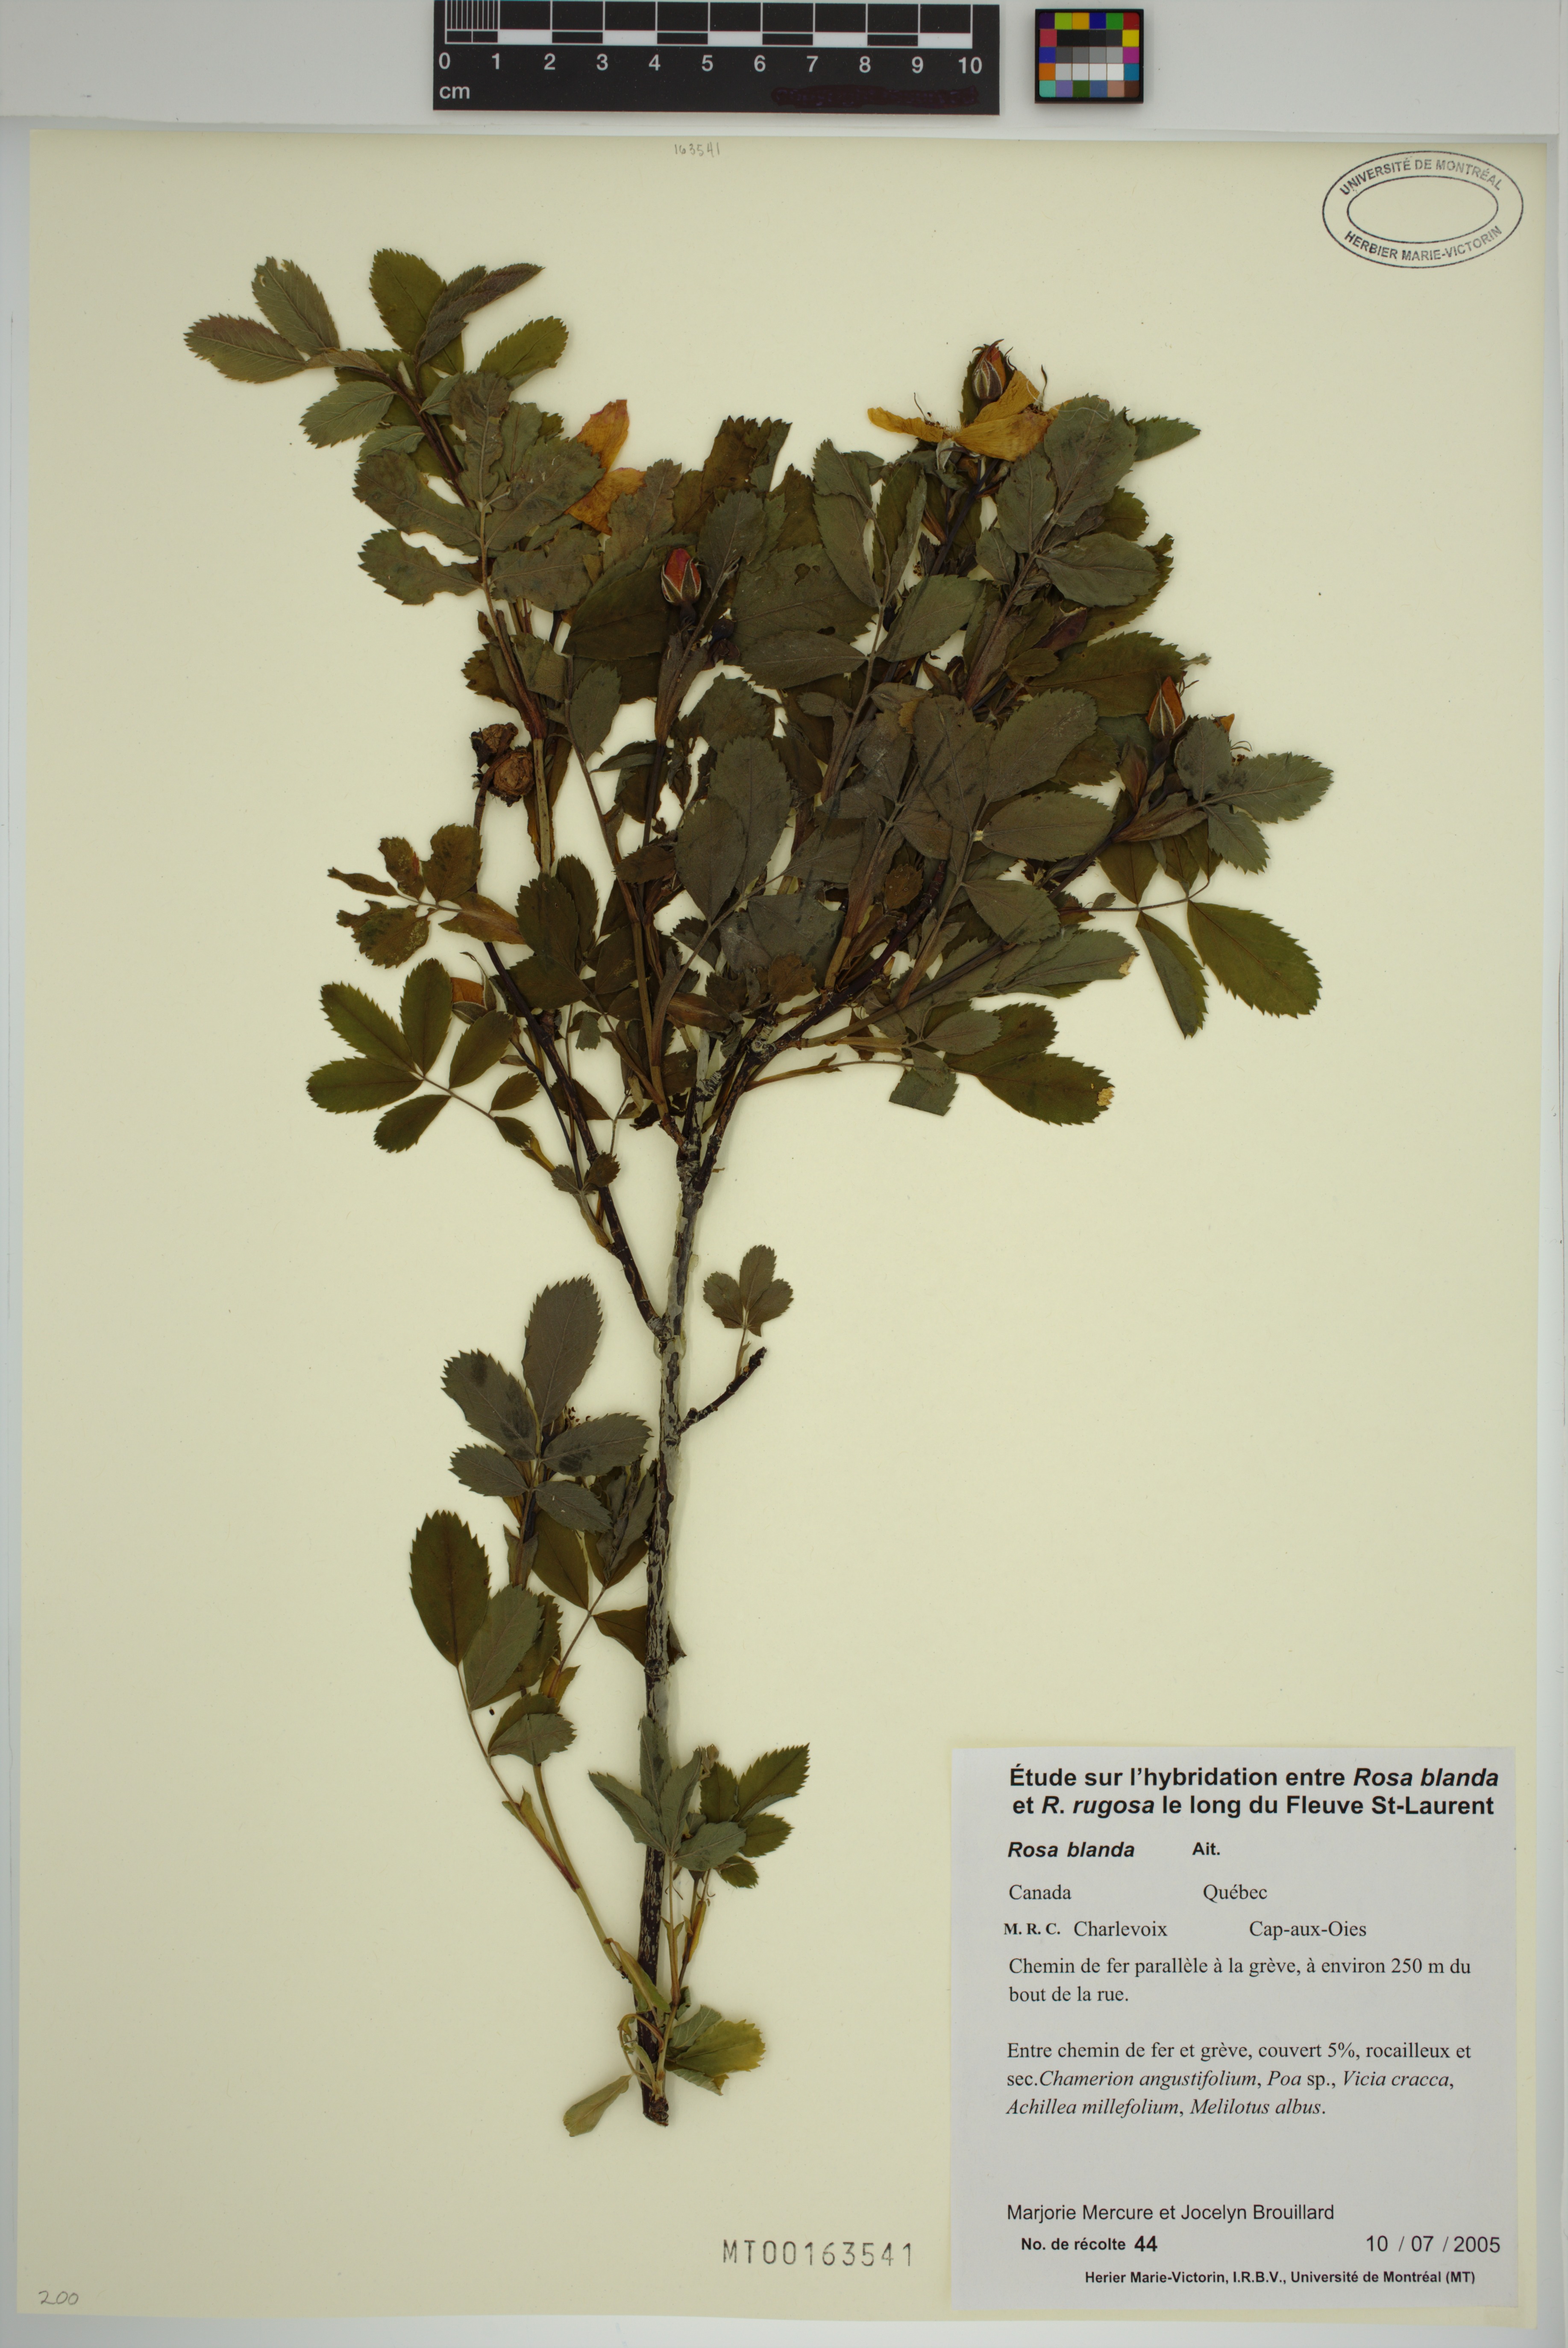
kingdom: Plantae
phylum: Tracheophyta
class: Magnoliopsida
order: Rosales
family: Rosaceae
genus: Rosa
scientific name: Rosa blanda
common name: Smooth rose
